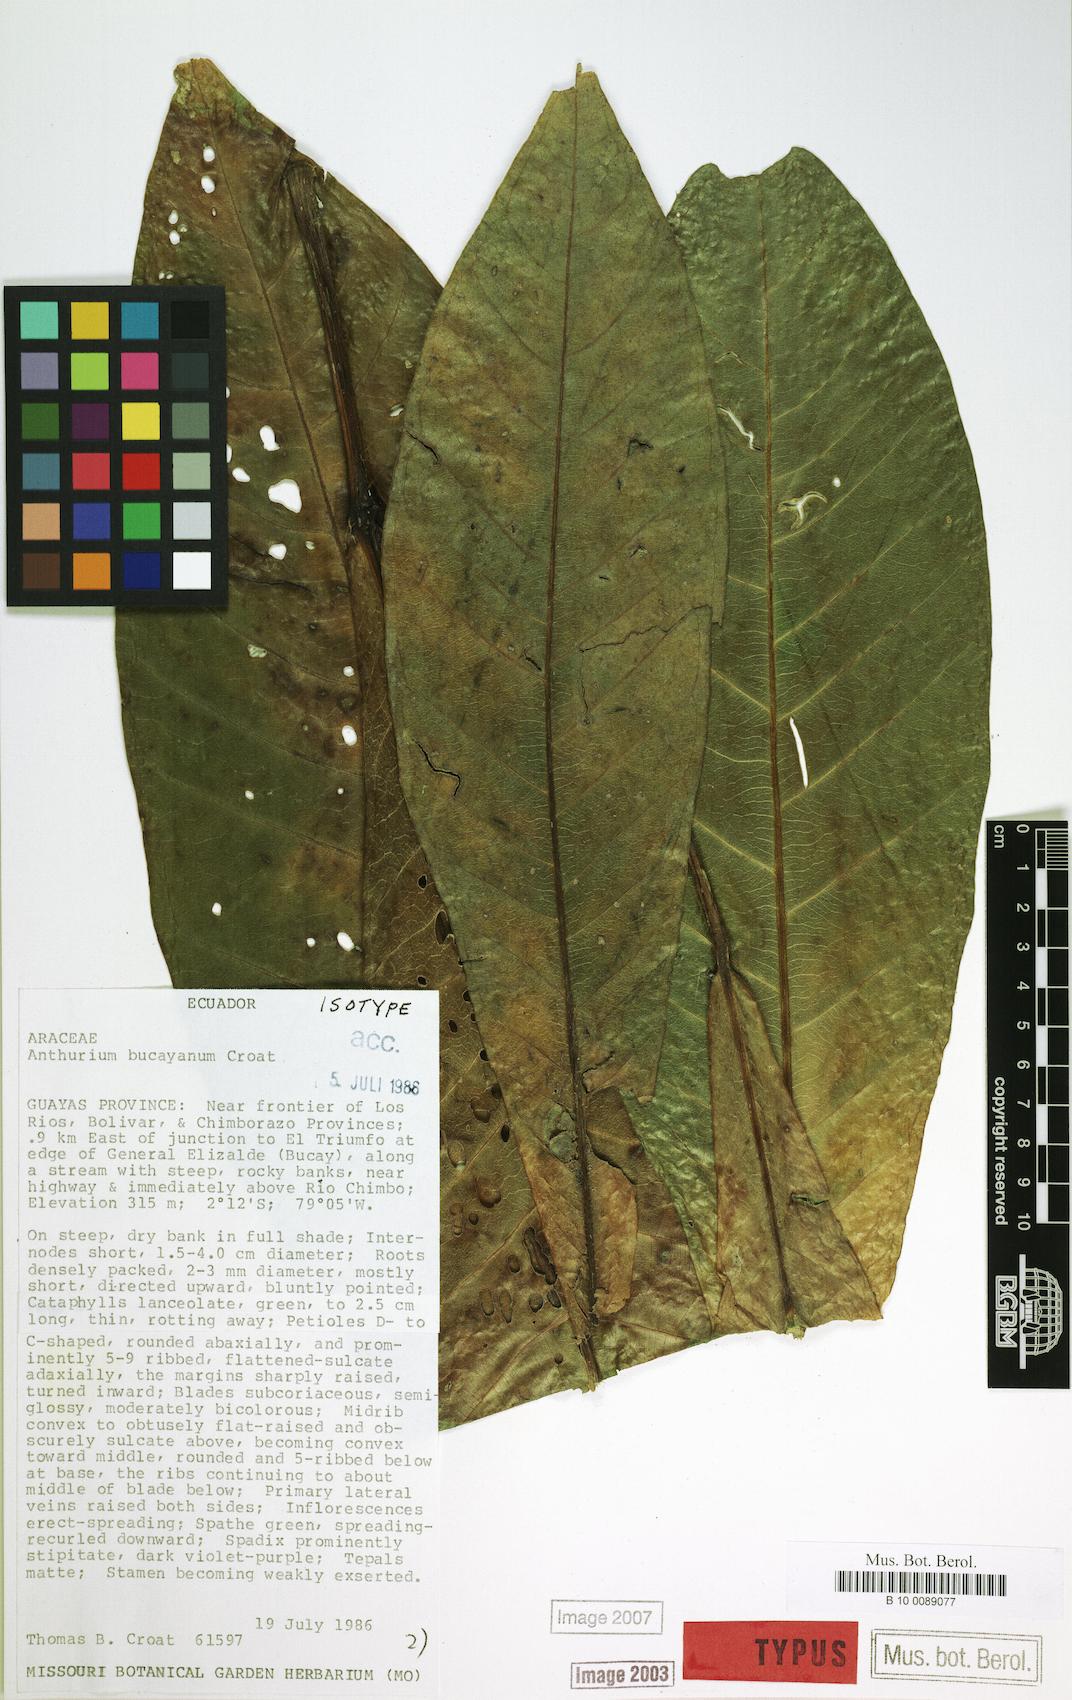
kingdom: Plantae
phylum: Tracheophyta
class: Liliopsida
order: Alismatales
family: Araceae
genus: Anthurium
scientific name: Anthurium bucayanum
